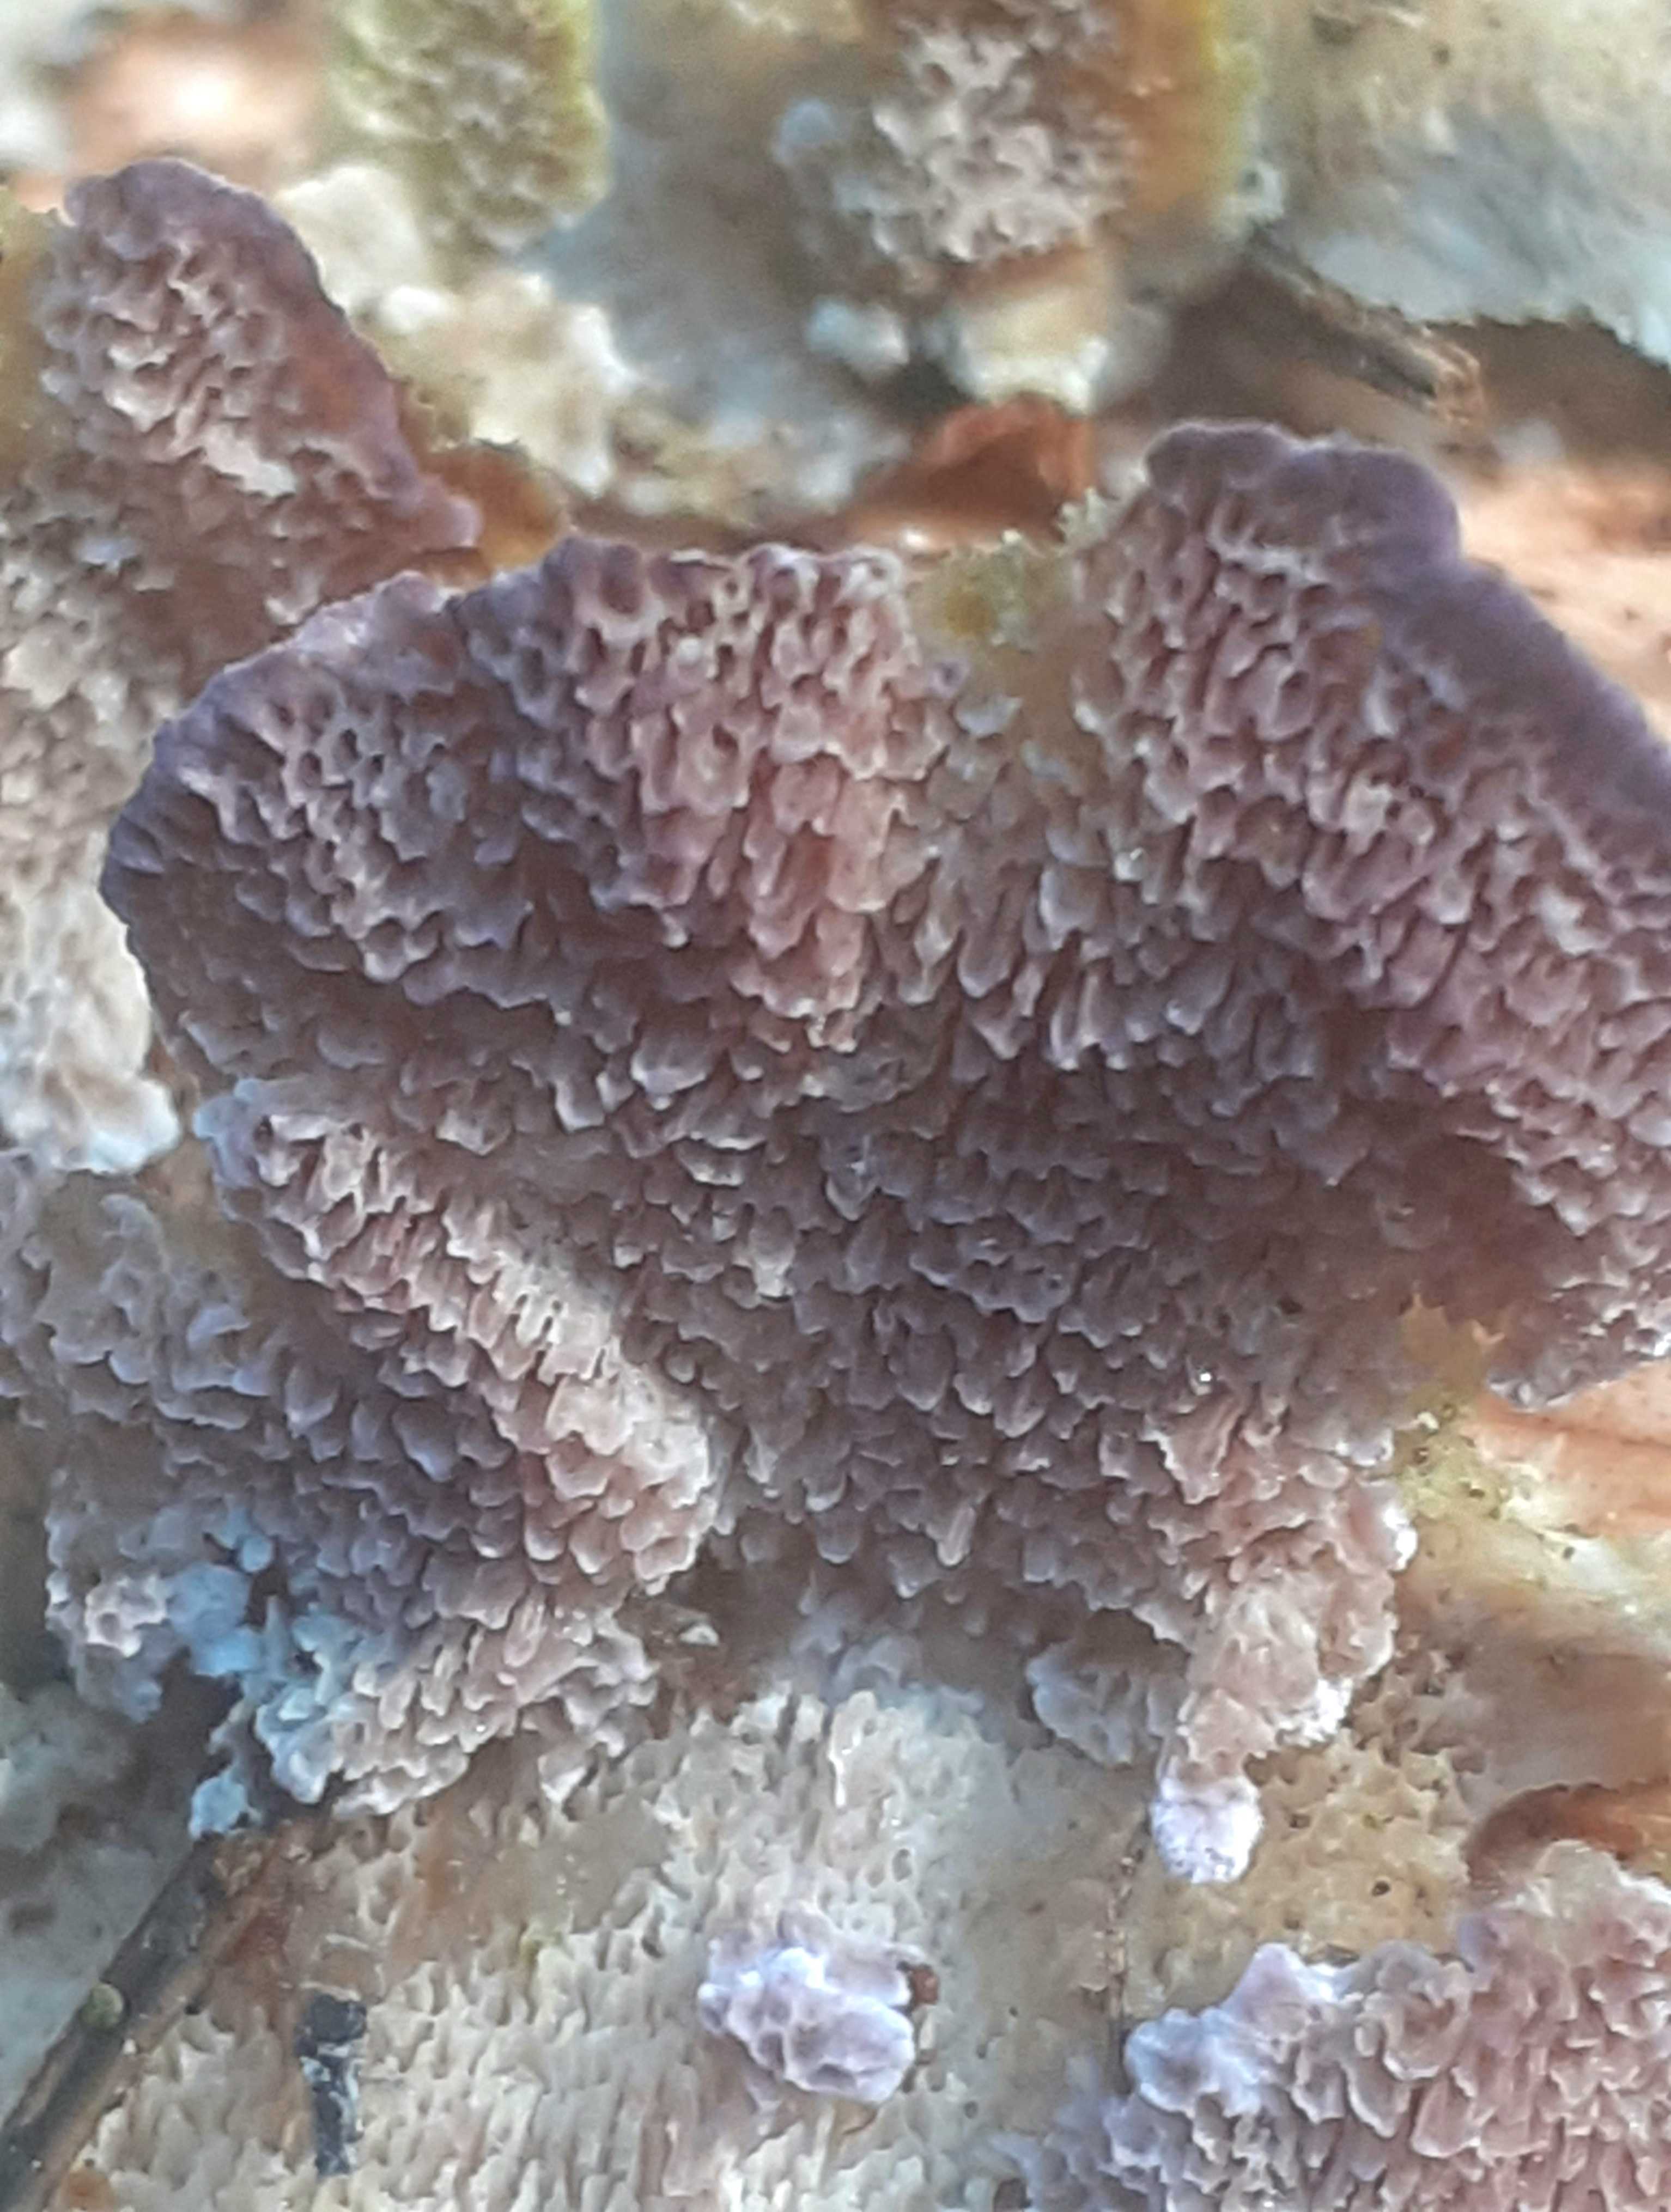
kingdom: Fungi
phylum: Basidiomycota
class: Agaricomycetes
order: Hymenochaetales
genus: Trichaptum
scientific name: Trichaptum abietinum
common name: almindelig violporesvamp
